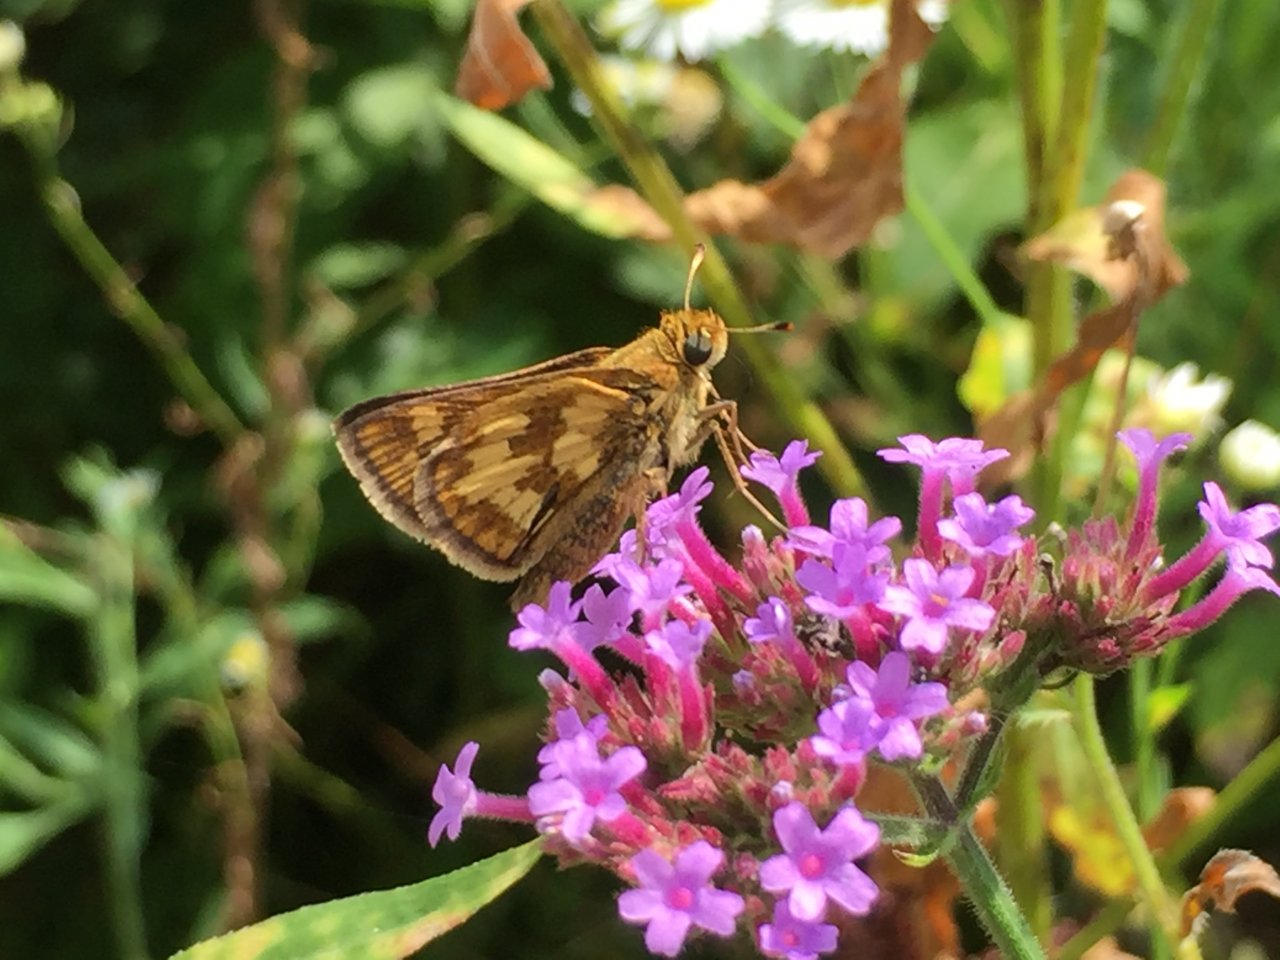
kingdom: Animalia
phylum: Arthropoda
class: Insecta
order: Lepidoptera
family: Hesperiidae
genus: Polites
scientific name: Polites coras
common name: Peck's Skipper
